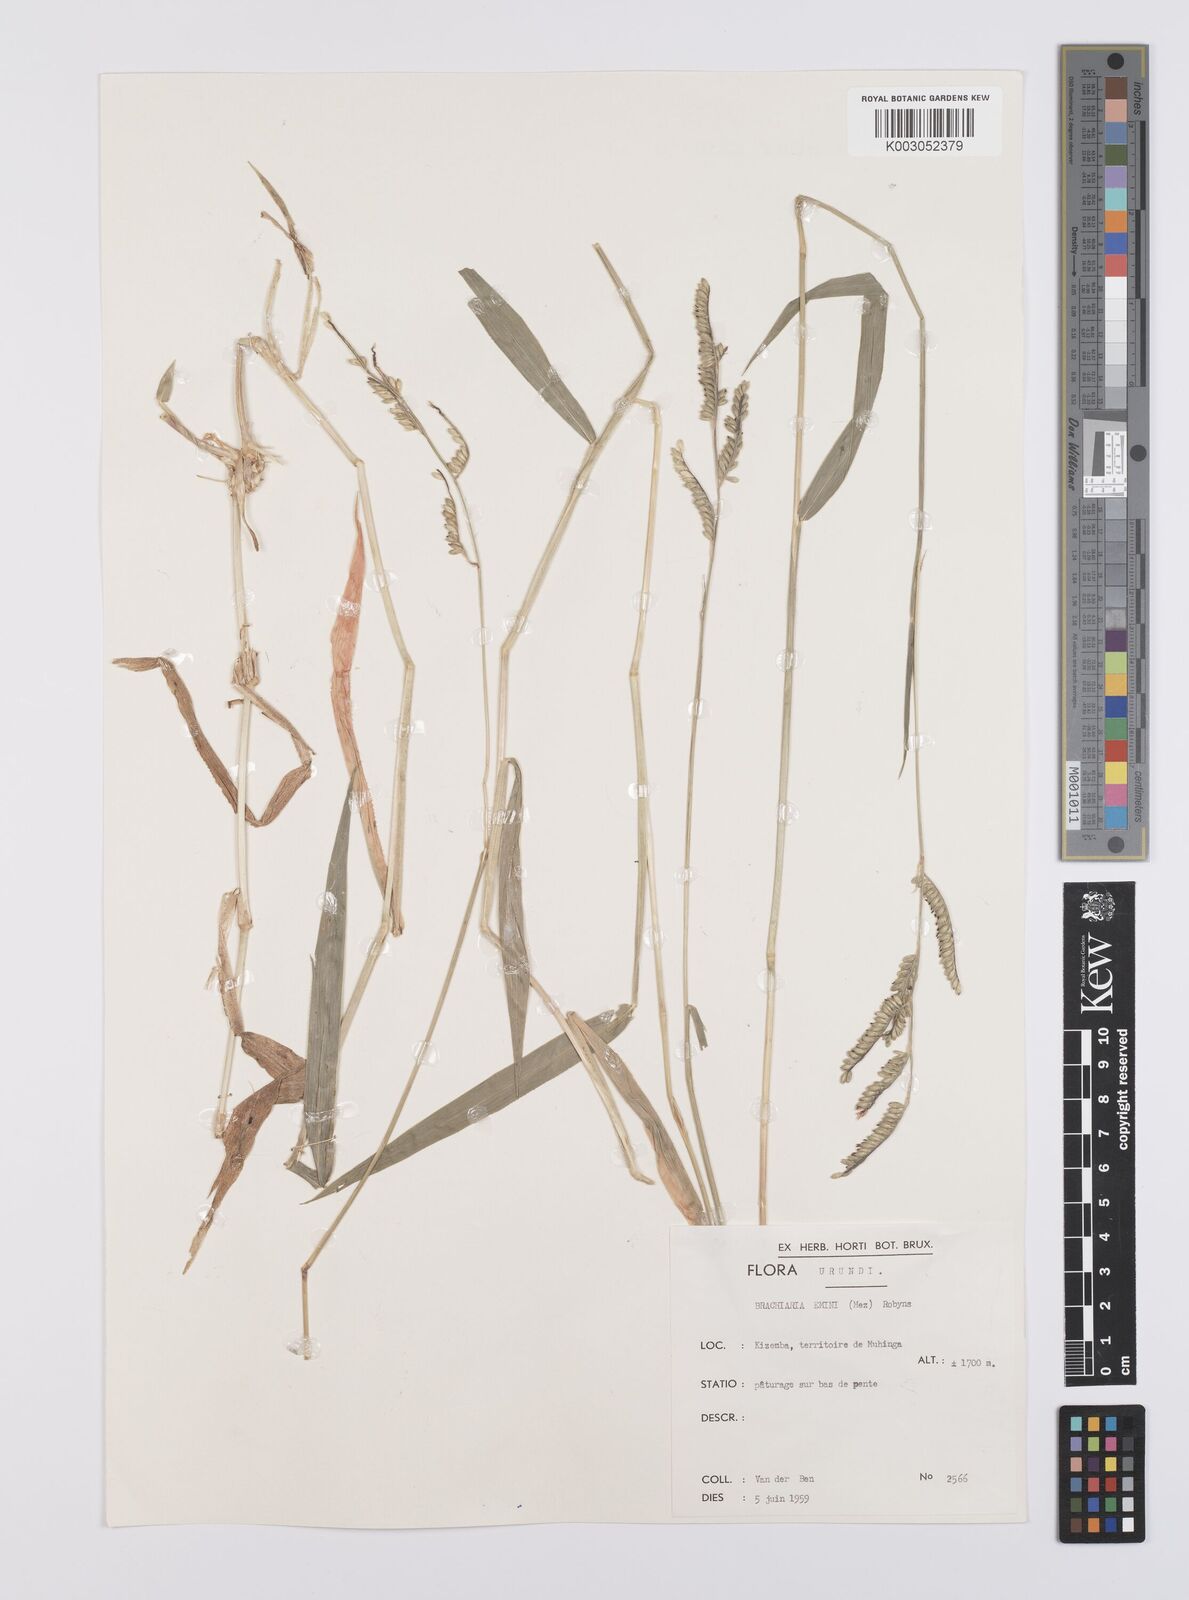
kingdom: Plantae
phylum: Tracheophyta
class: Liliopsida
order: Poales
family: Poaceae
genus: Urochloa
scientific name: Urochloa eminii
